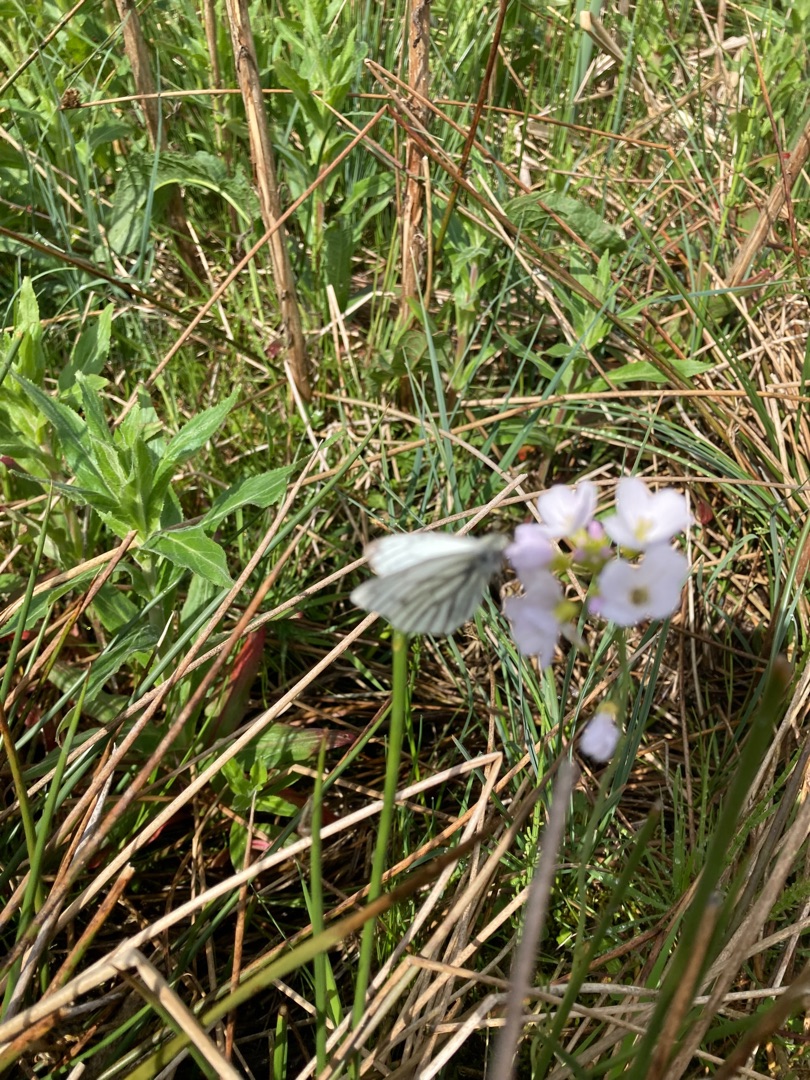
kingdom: Animalia
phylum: Arthropoda
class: Insecta
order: Lepidoptera
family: Pieridae
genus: Pieris
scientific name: Pieris napi
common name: Grønåret kålsommerfugl
